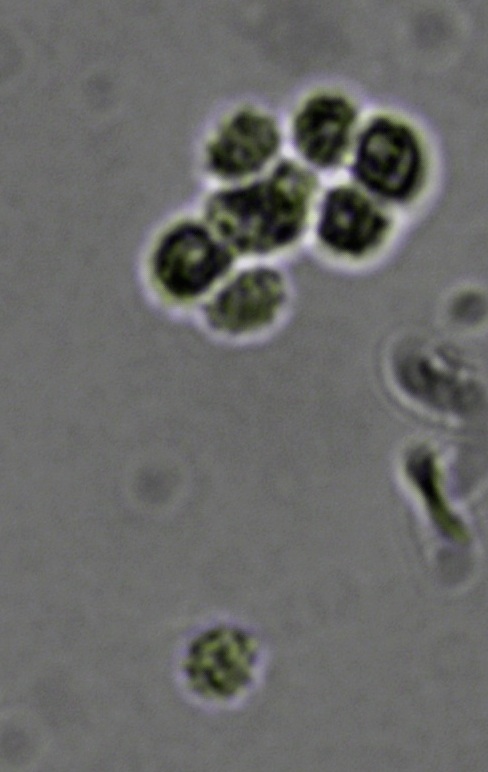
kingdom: Fungi
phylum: Basidiomycota
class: Agaricomycetes
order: Trechisporales
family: Sistotremataceae
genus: Trechispora
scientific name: Trechispora nivea
